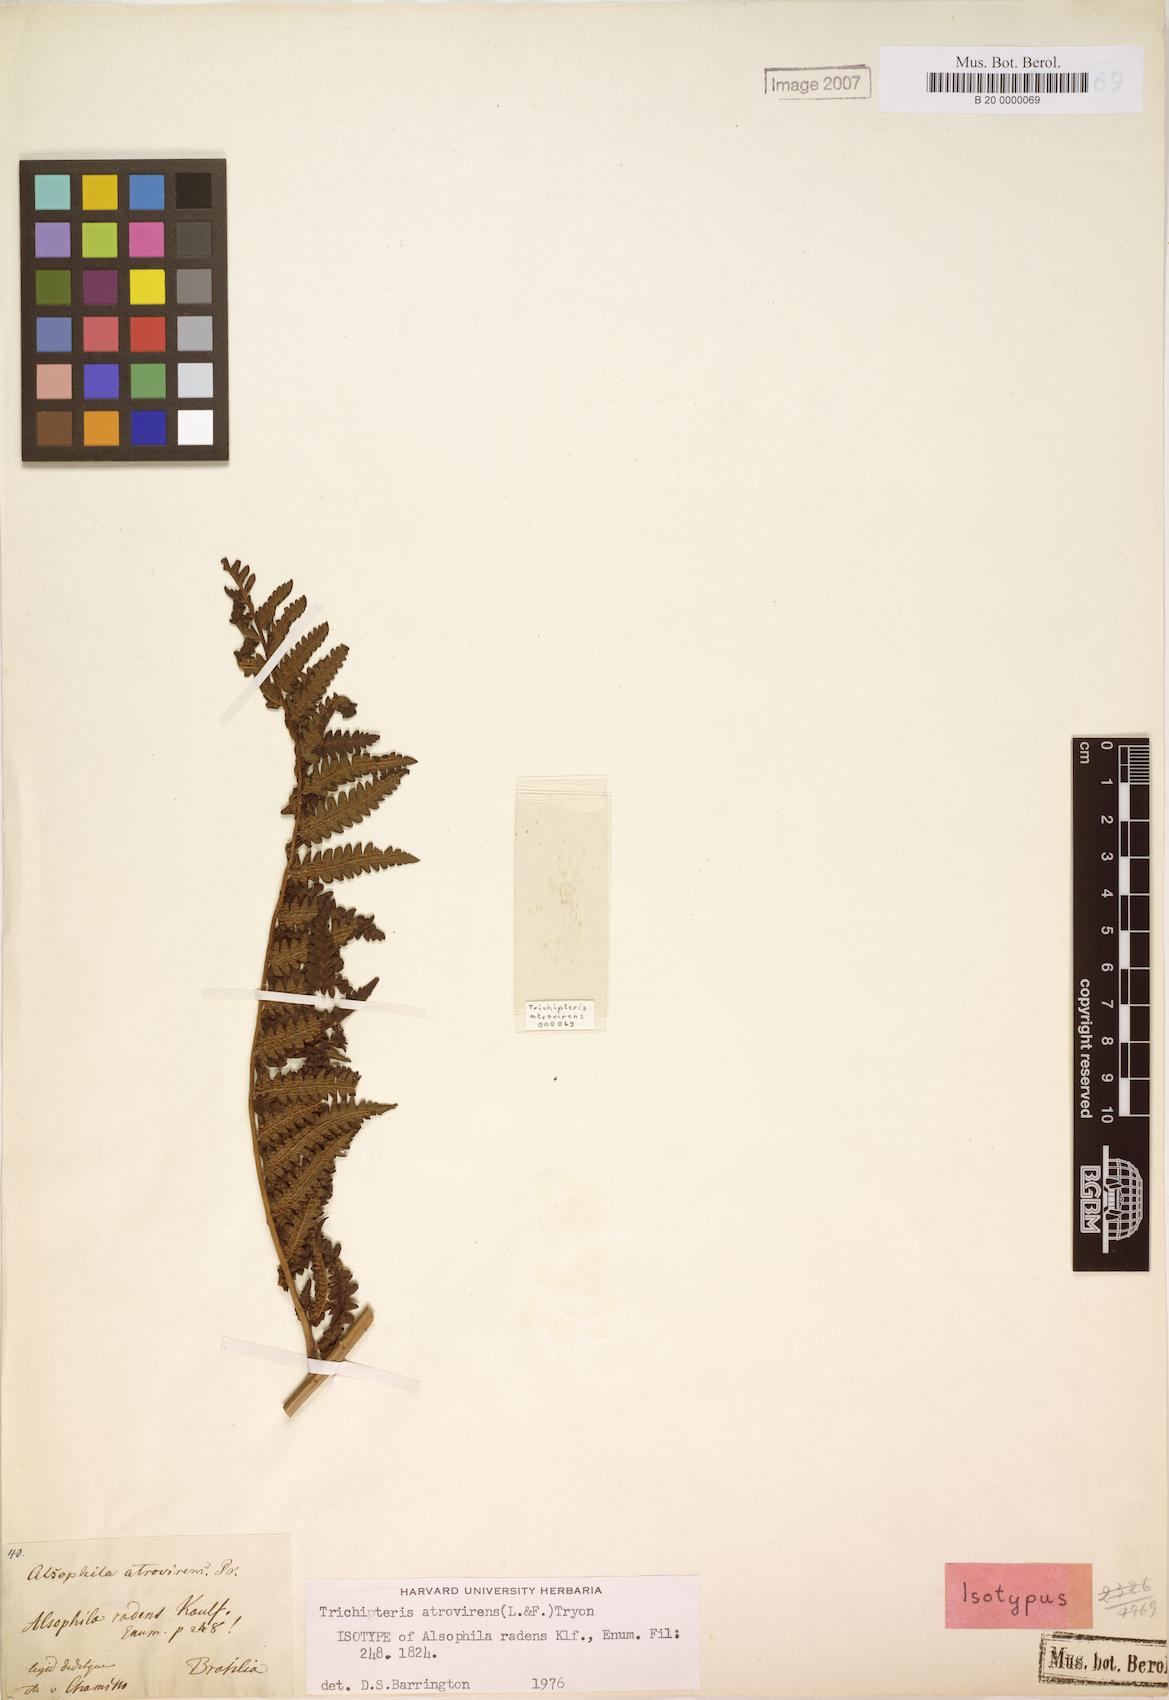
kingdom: Plantae
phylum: Tracheophyta
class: Polypodiopsida
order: Cyatheales
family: Cyatheaceae
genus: Cyathea
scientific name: Cyathea atrovirens
